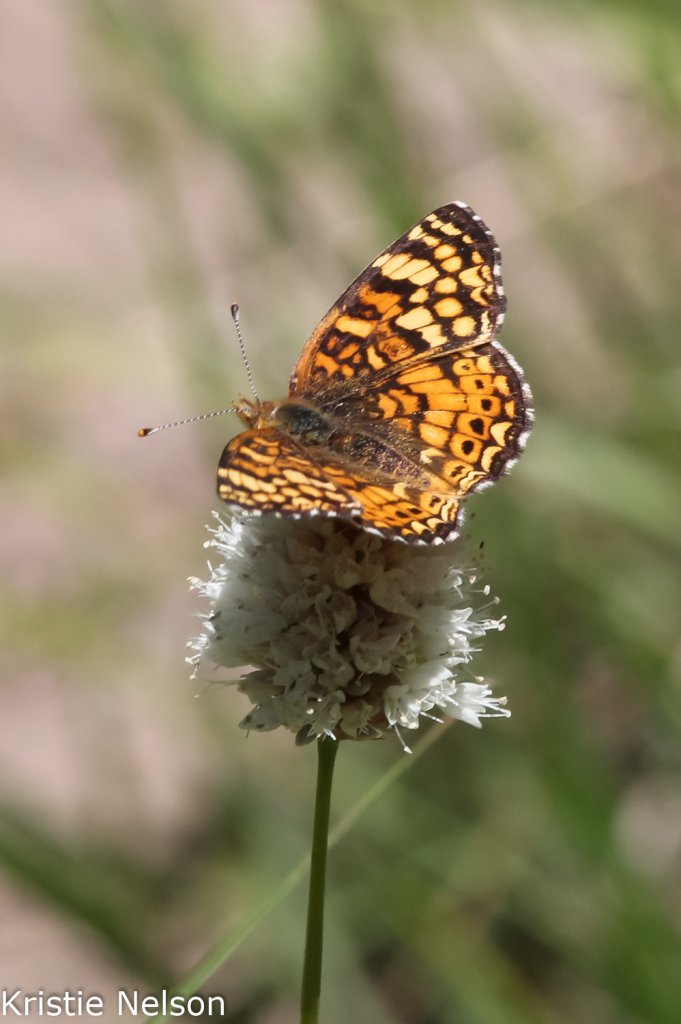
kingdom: Animalia
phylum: Arthropoda
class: Insecta
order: Lepidoptera
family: Nymphalidae
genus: Eresia
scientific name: Eresia aveyrona
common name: Mylitta Crescent
